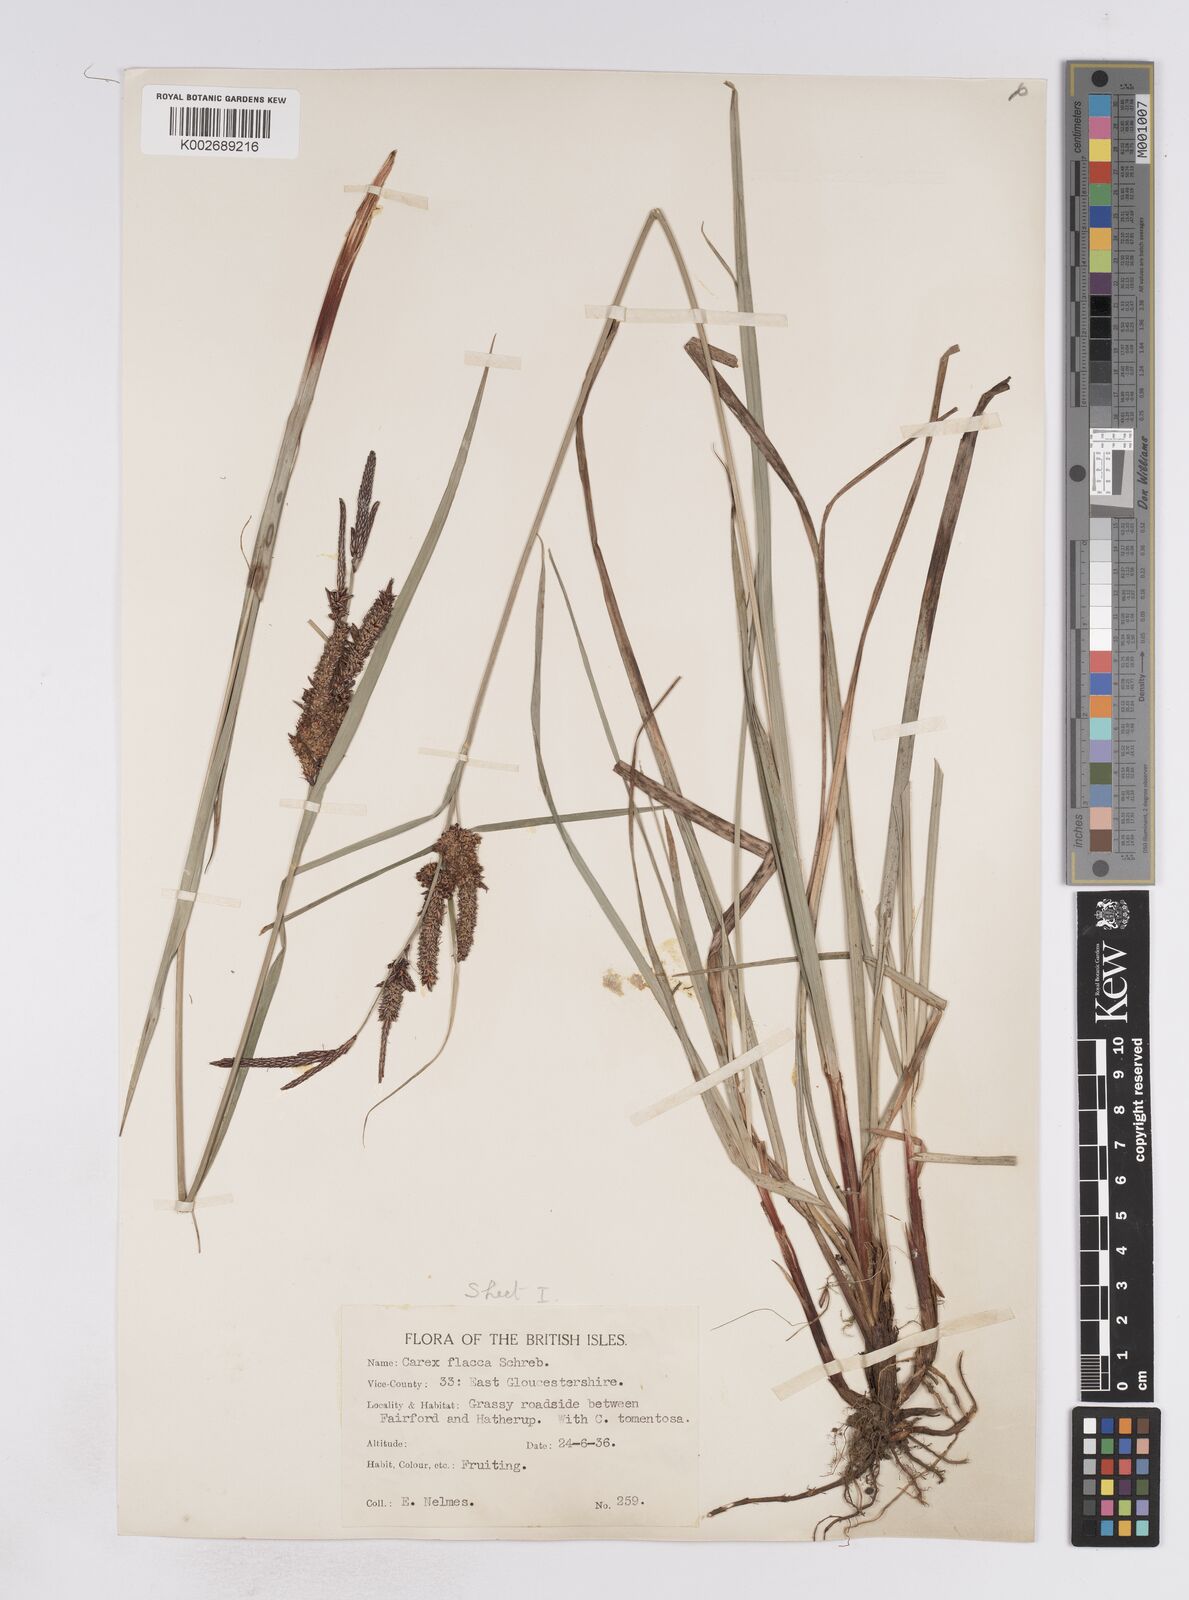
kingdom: Plantae
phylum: Tracheophyta
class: Liliopsida
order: Poales
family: Cyperaceae
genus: Carex
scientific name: Carex flacca
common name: Glaucous sedge
